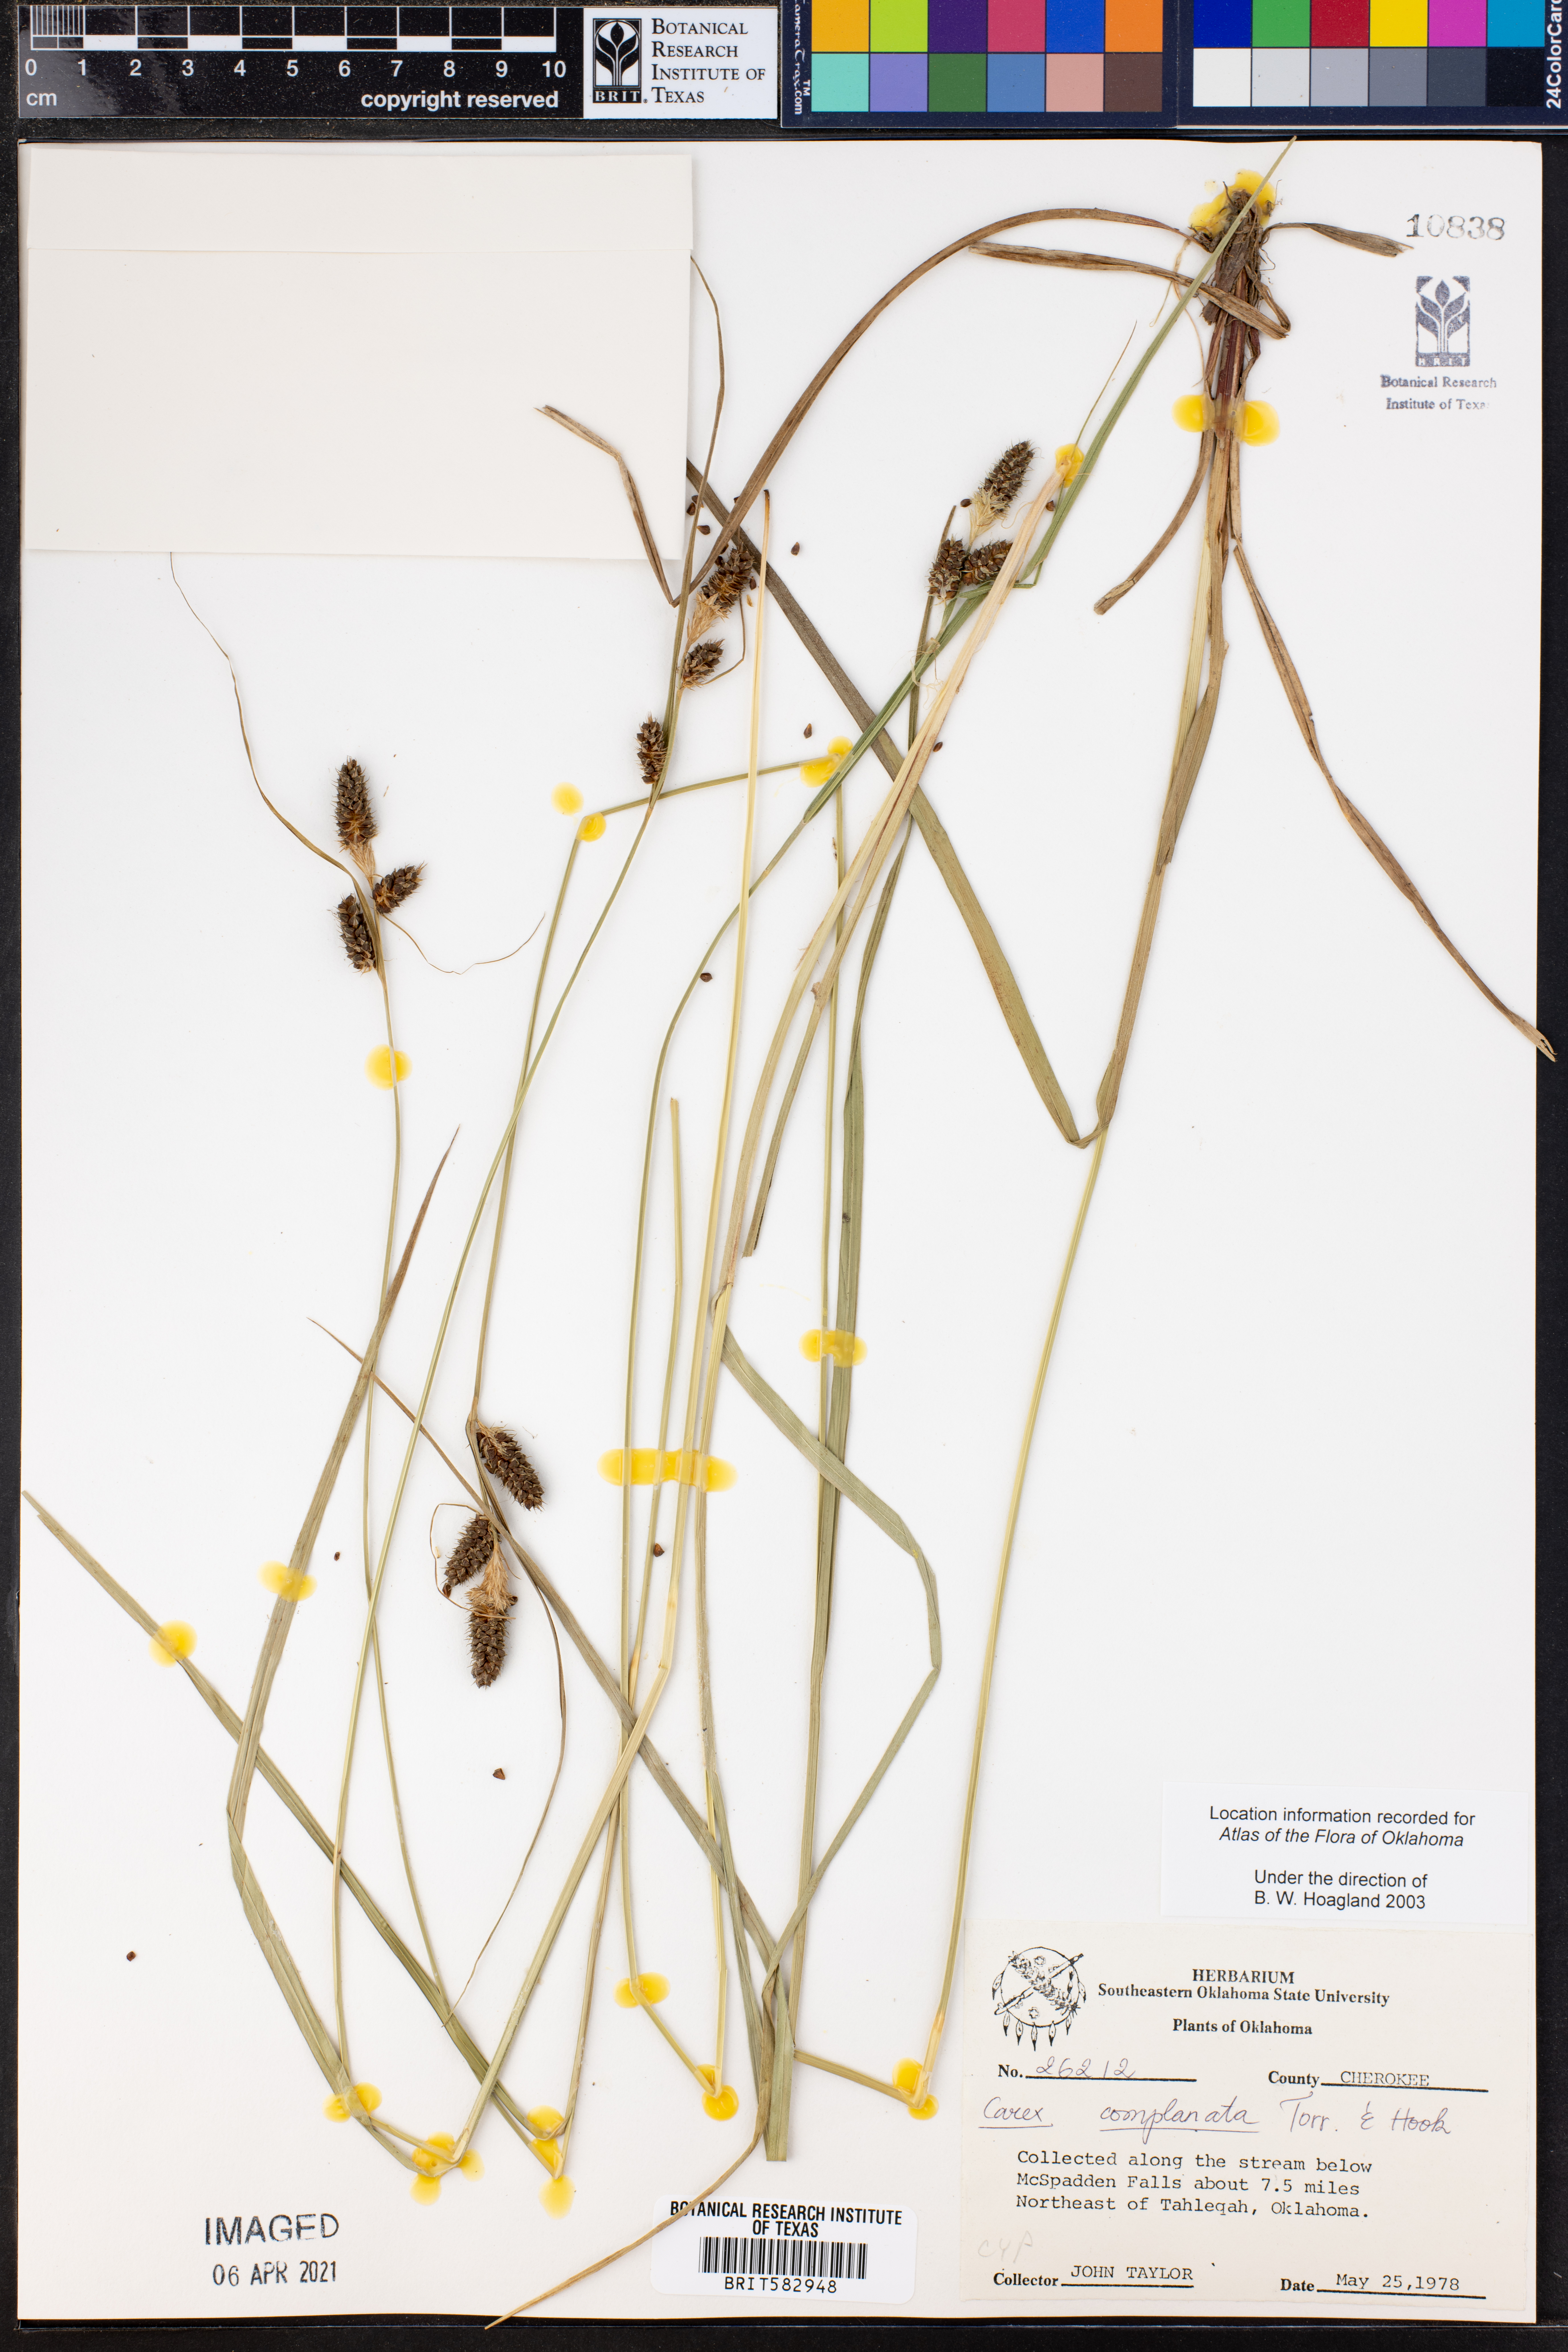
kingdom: Plantae
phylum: Tracheophyta
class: Liliopsida
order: Poales
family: Cyperaceae
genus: Carex
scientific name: Carex complanata
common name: Hirsute sedge
